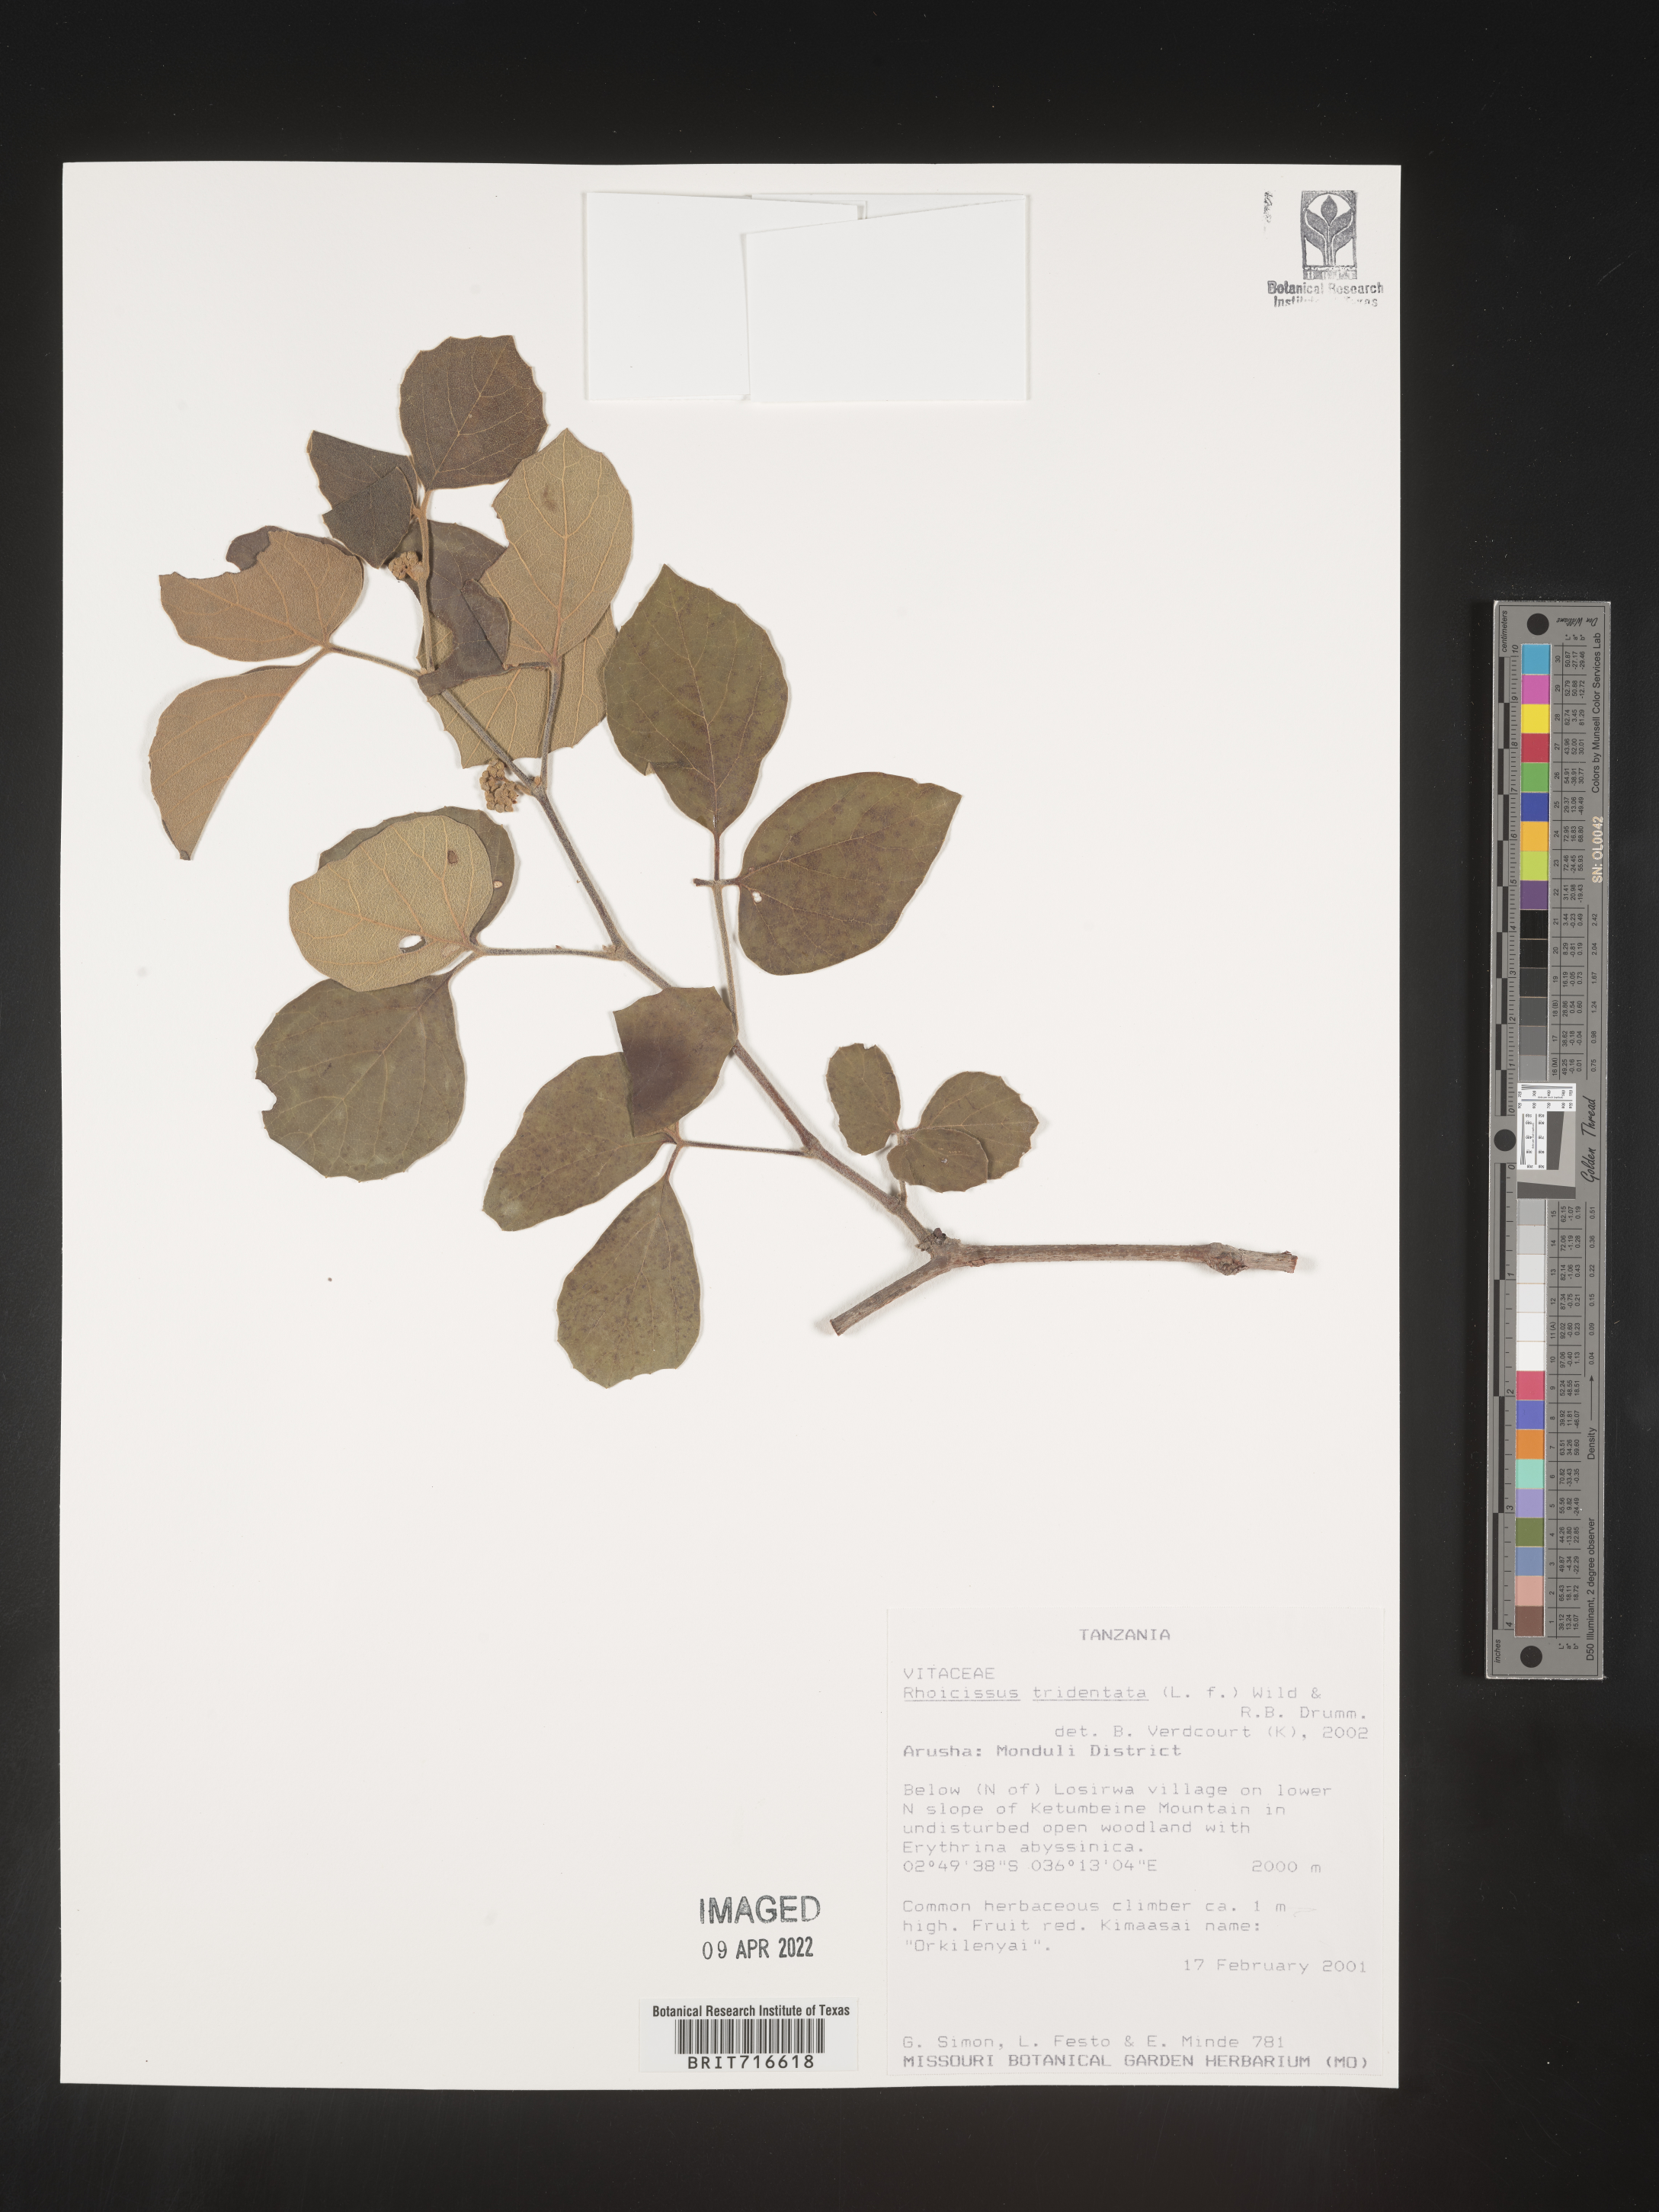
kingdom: Plantae
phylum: Tracheophyta
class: Magnoliopsida
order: Vitales
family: Vitaceae
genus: Rhoicissus
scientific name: Rhoicissus tridentata
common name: Common forest grape
